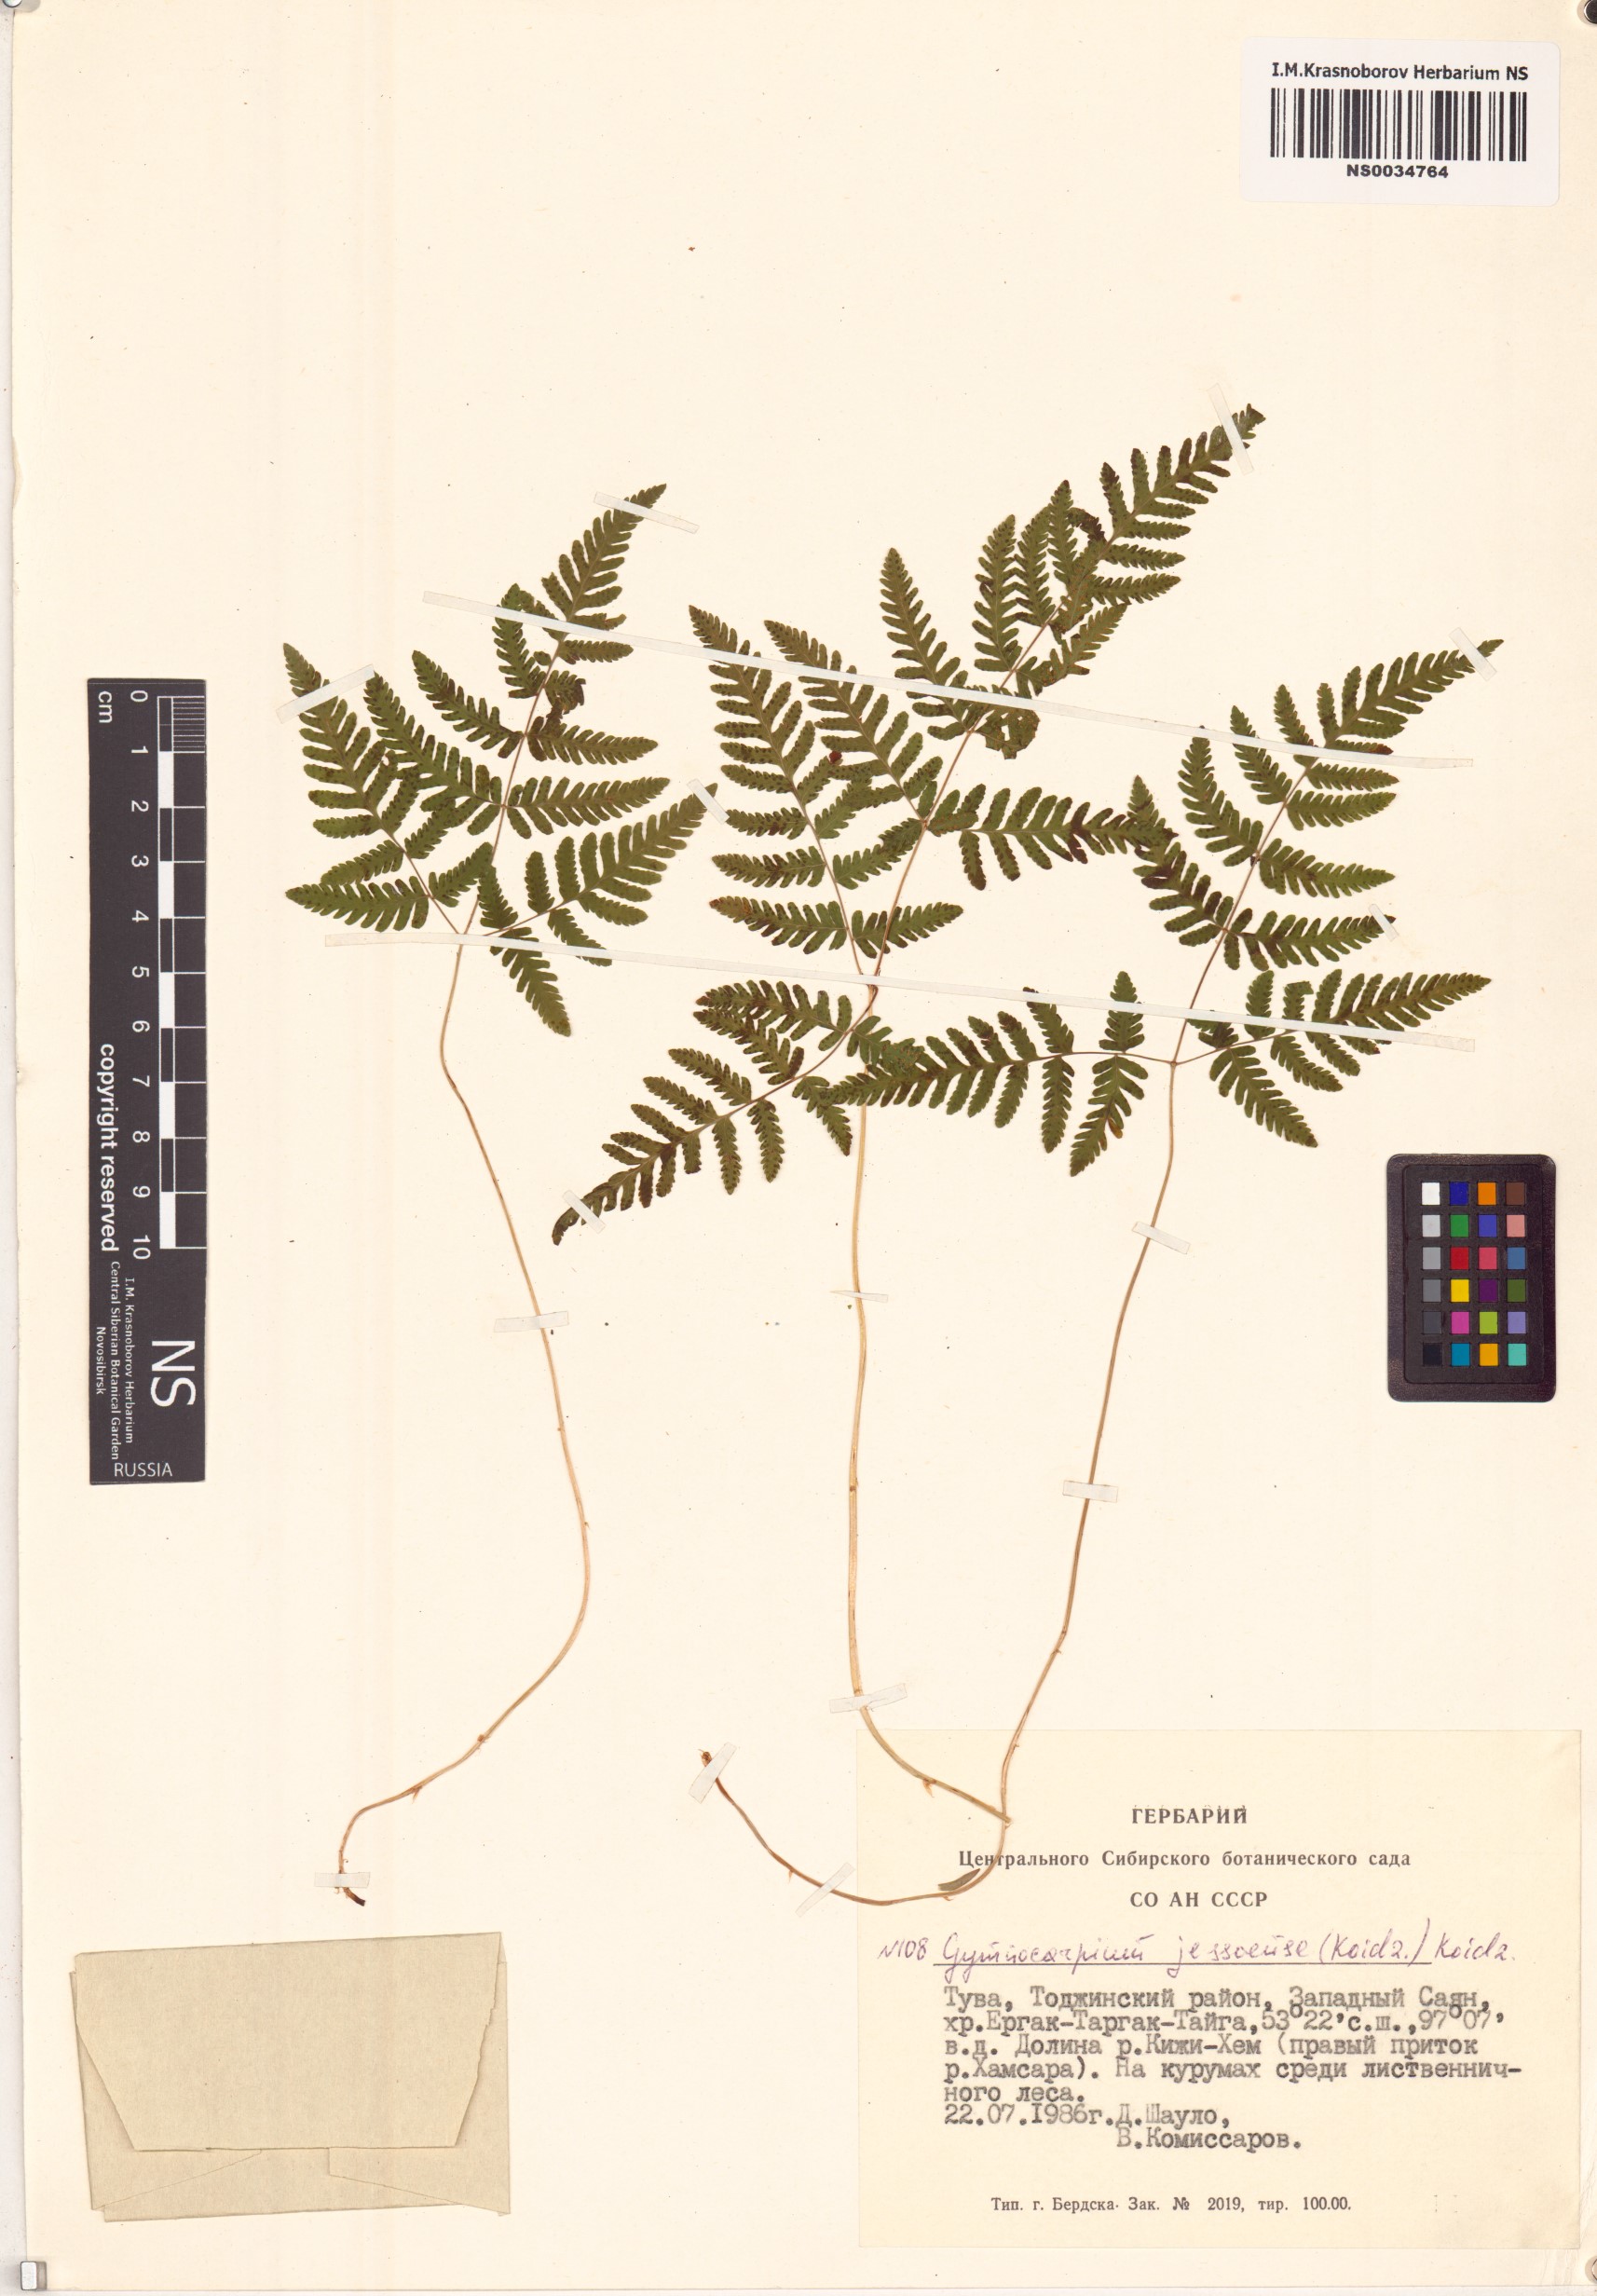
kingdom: Plantae
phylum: Tracheophyta
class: Polypodiopsida
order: Polypodiales
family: Cystopteridaceae
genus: Gymnocarpium
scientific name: Gymnocarpium jessoense
